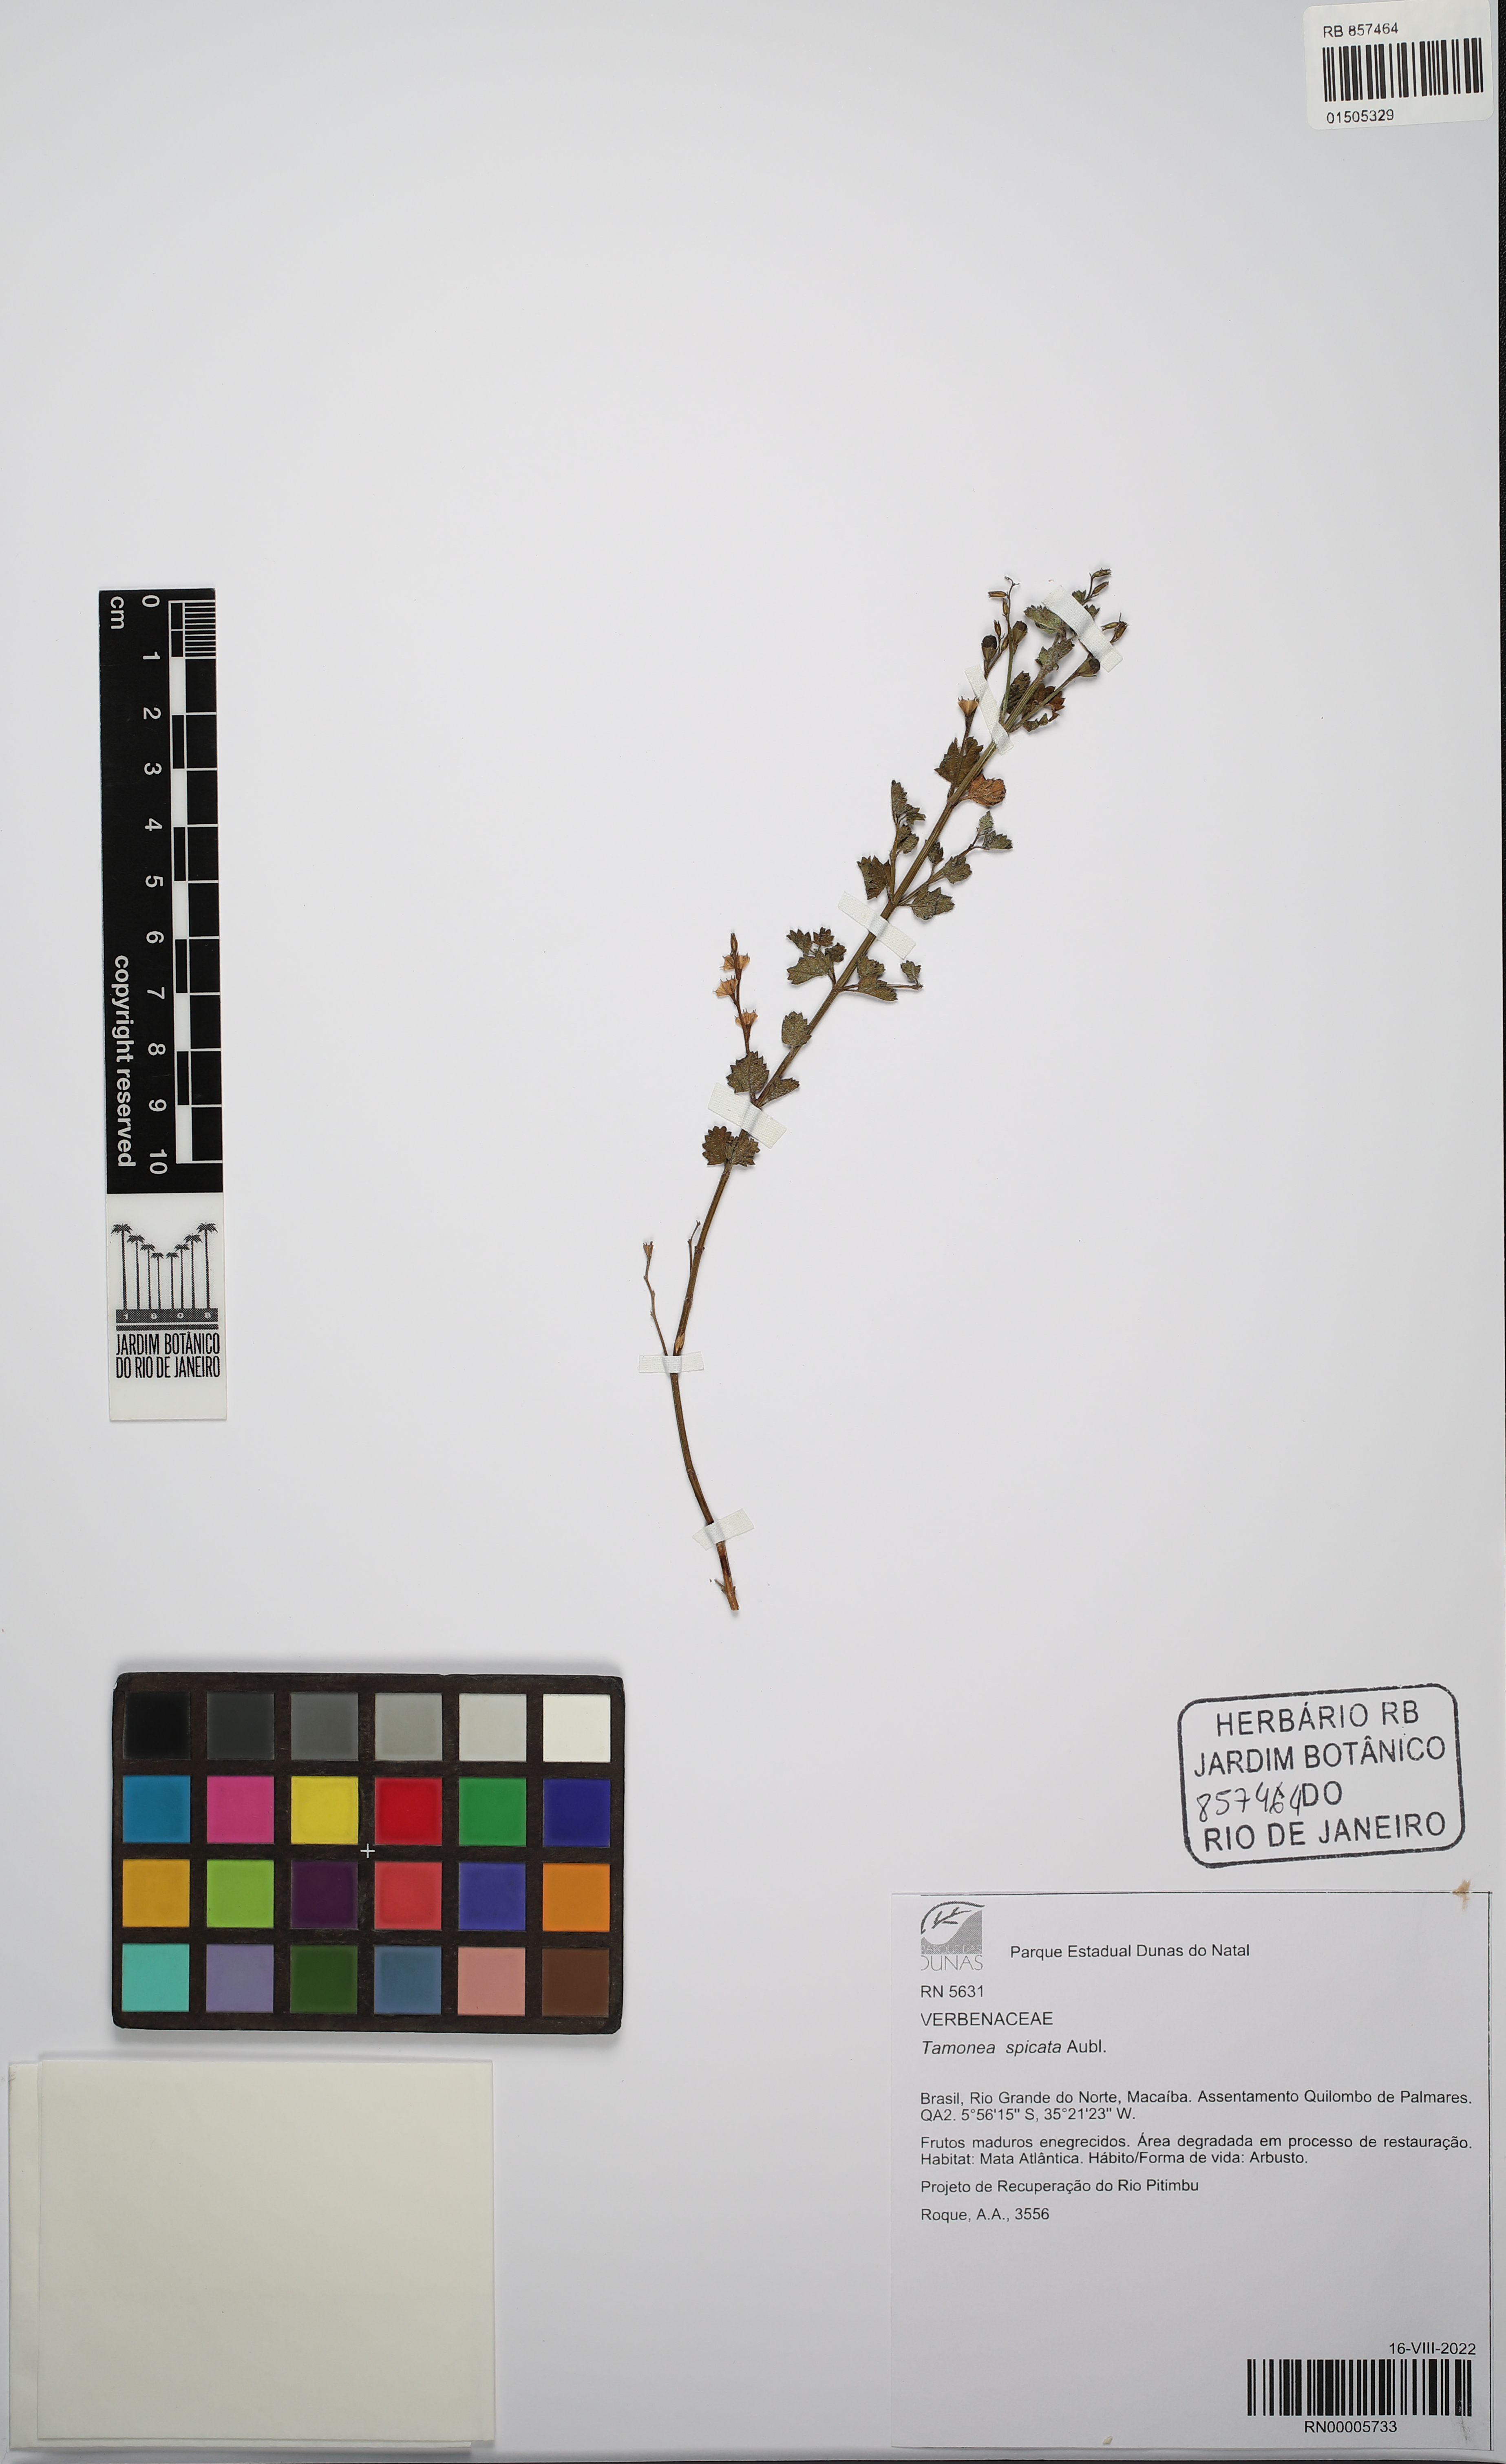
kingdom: Plantae
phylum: Tracheophyta
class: Magnoliopsida
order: Lamiales
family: Verbenaceae
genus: Tamonea
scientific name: Tamonea spicata
